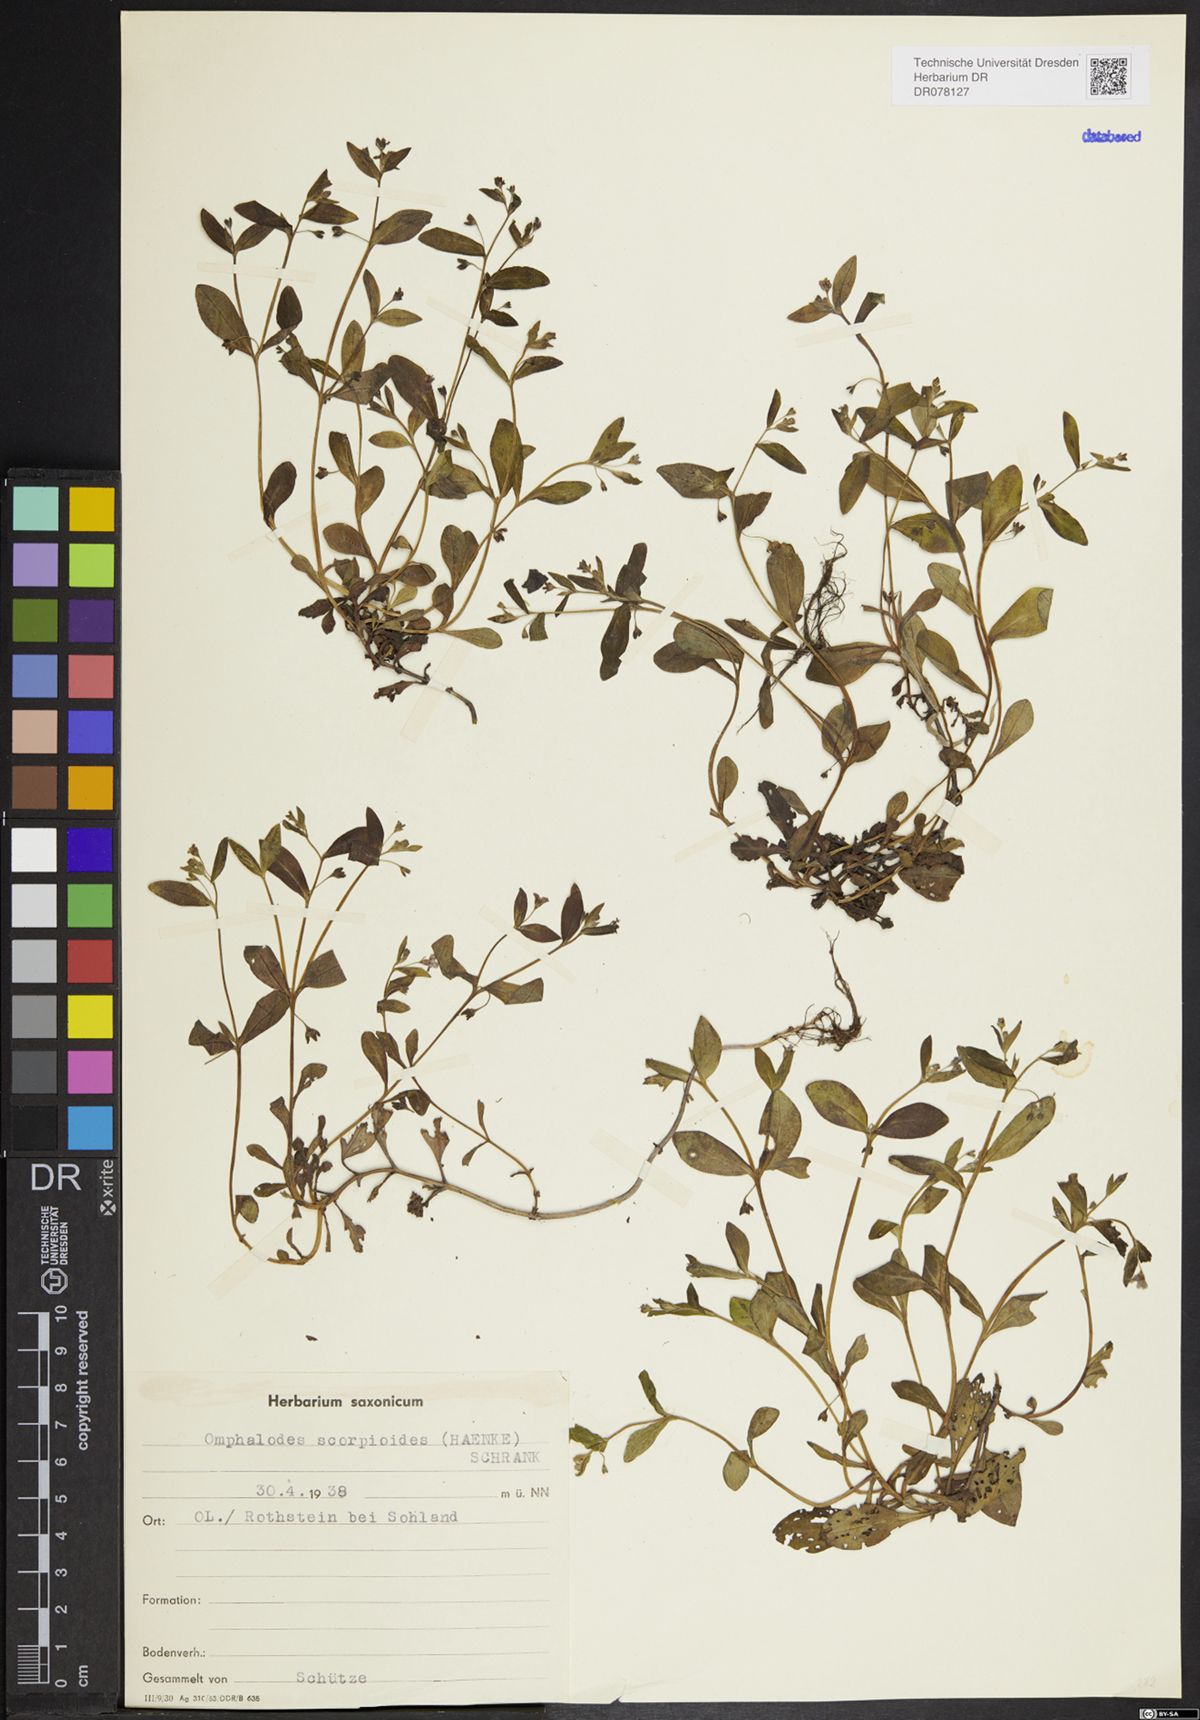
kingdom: Plantae
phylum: Tracheophyta
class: Magnoliopsida
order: Boraginales
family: Boraginaceae
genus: Memoremea
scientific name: Memoremea scorpioides
